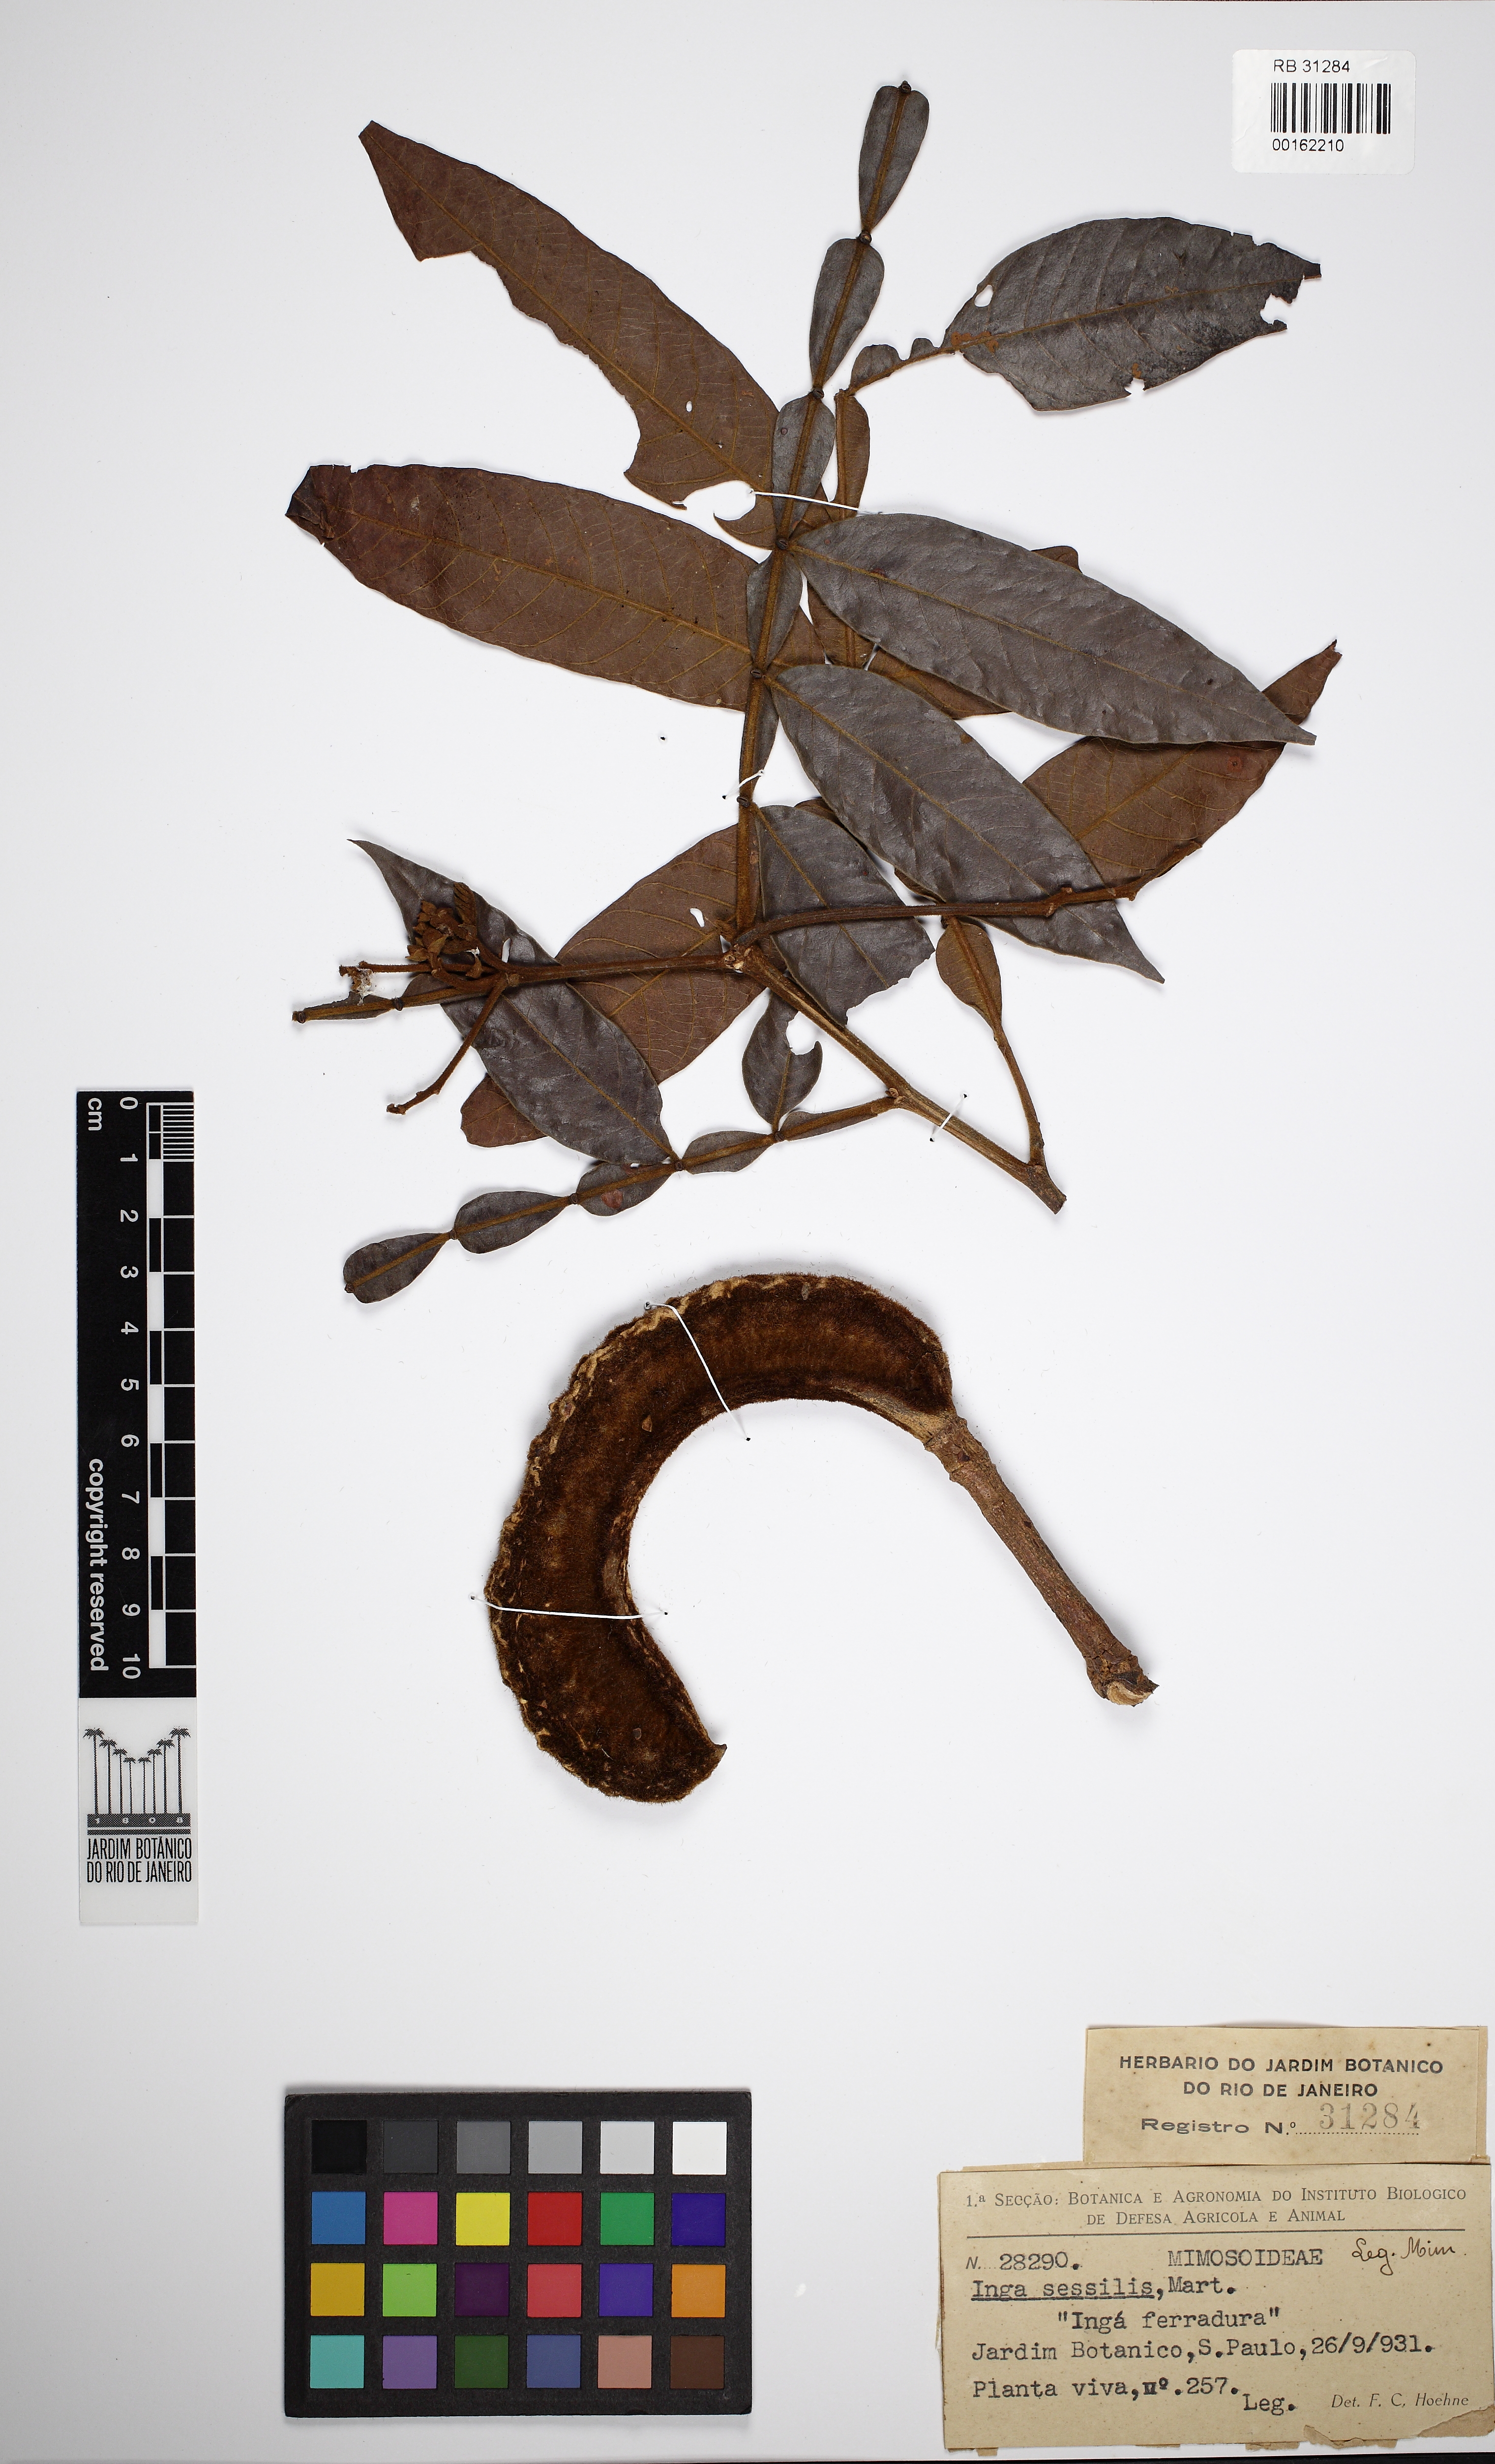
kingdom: Plantae
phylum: Tracheophyta
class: Magnoliopsida
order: Fabales
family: Fabaceae
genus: Inga
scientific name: Inga sessilis
